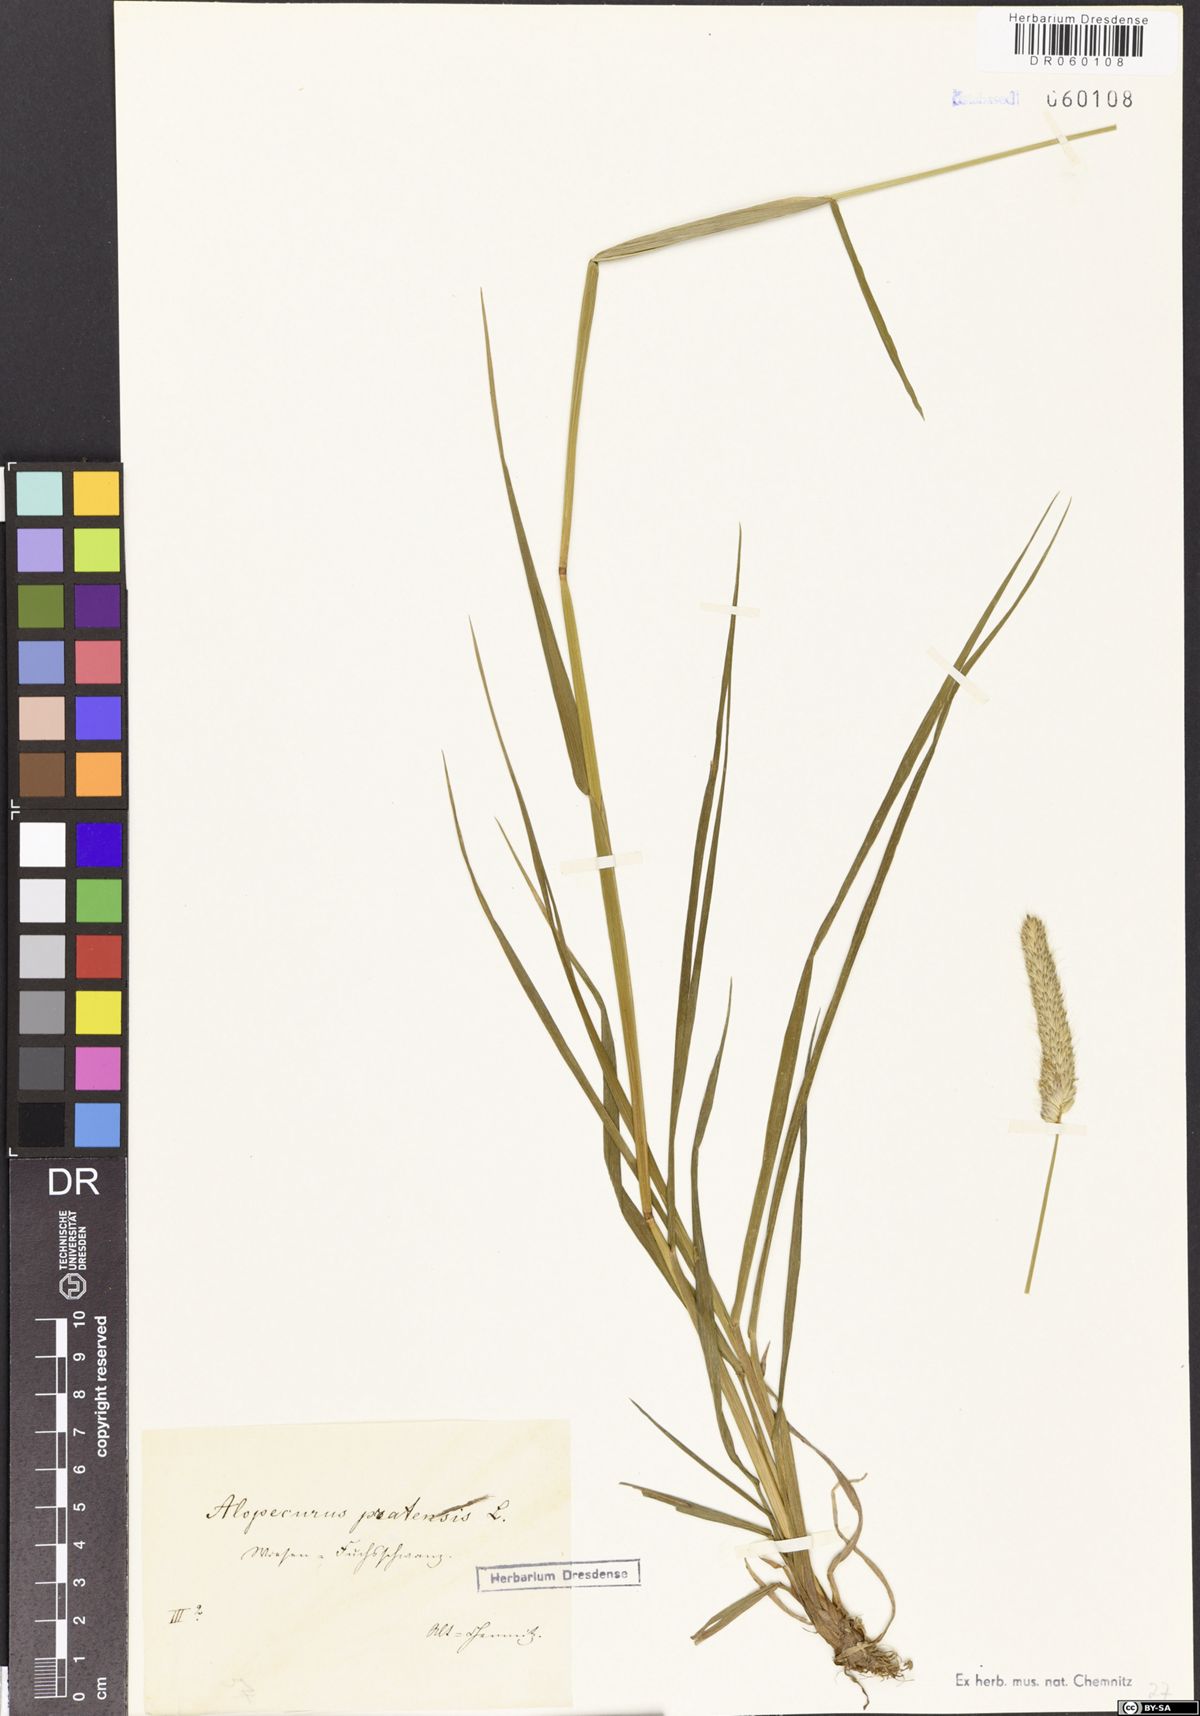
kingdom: Plantae
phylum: Tracheophyta
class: Liliopsida
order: Poales
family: Poaceae
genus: Alopecurus
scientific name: Alopecurus pratensis
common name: Meadow foxtail
